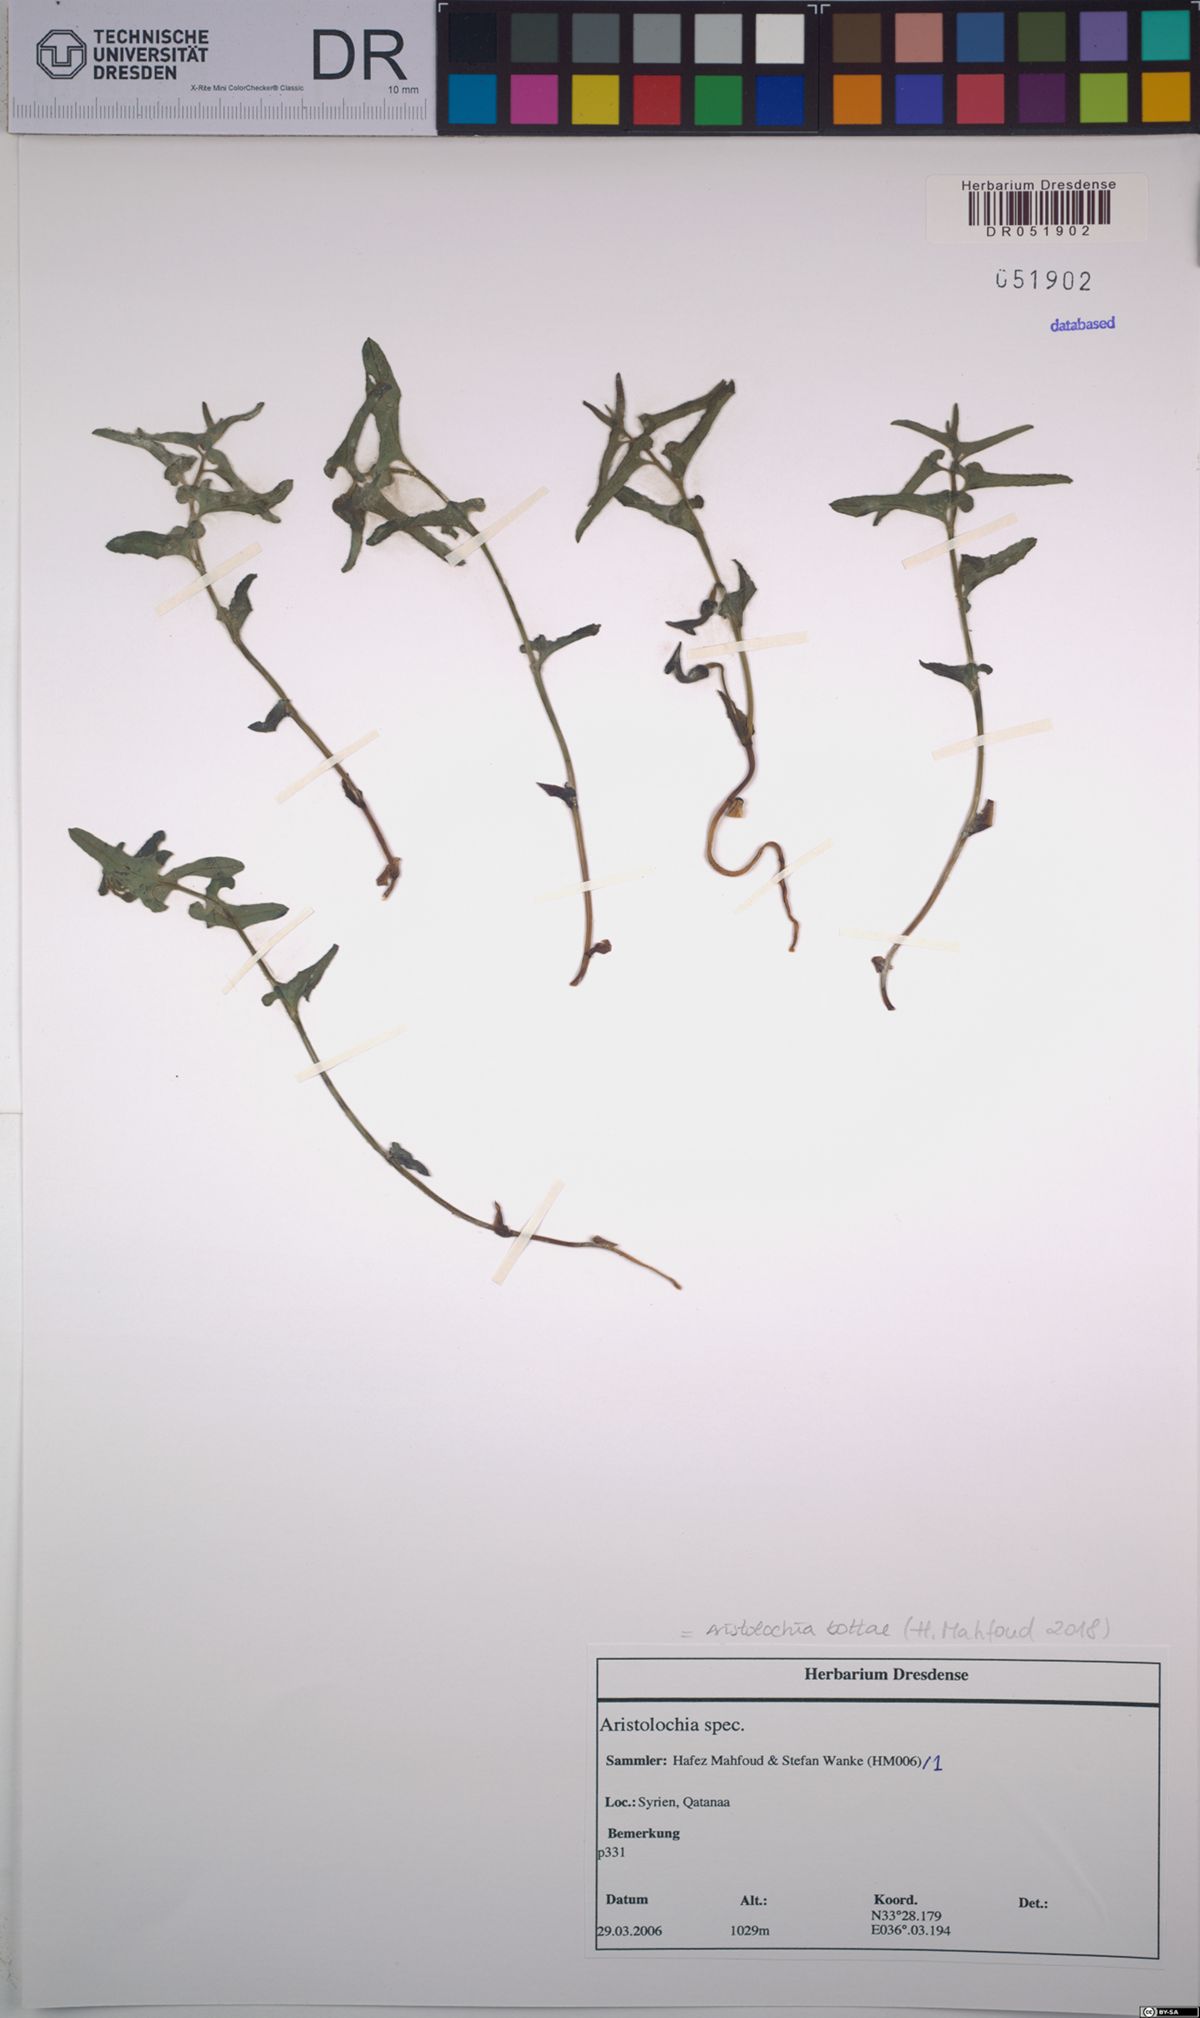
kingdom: Plantae
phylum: Tracheophyta
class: Magnoliopsida
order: Piperales
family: Aristolochiaceae
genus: Aristolochia
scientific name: Aristolochia bottae
